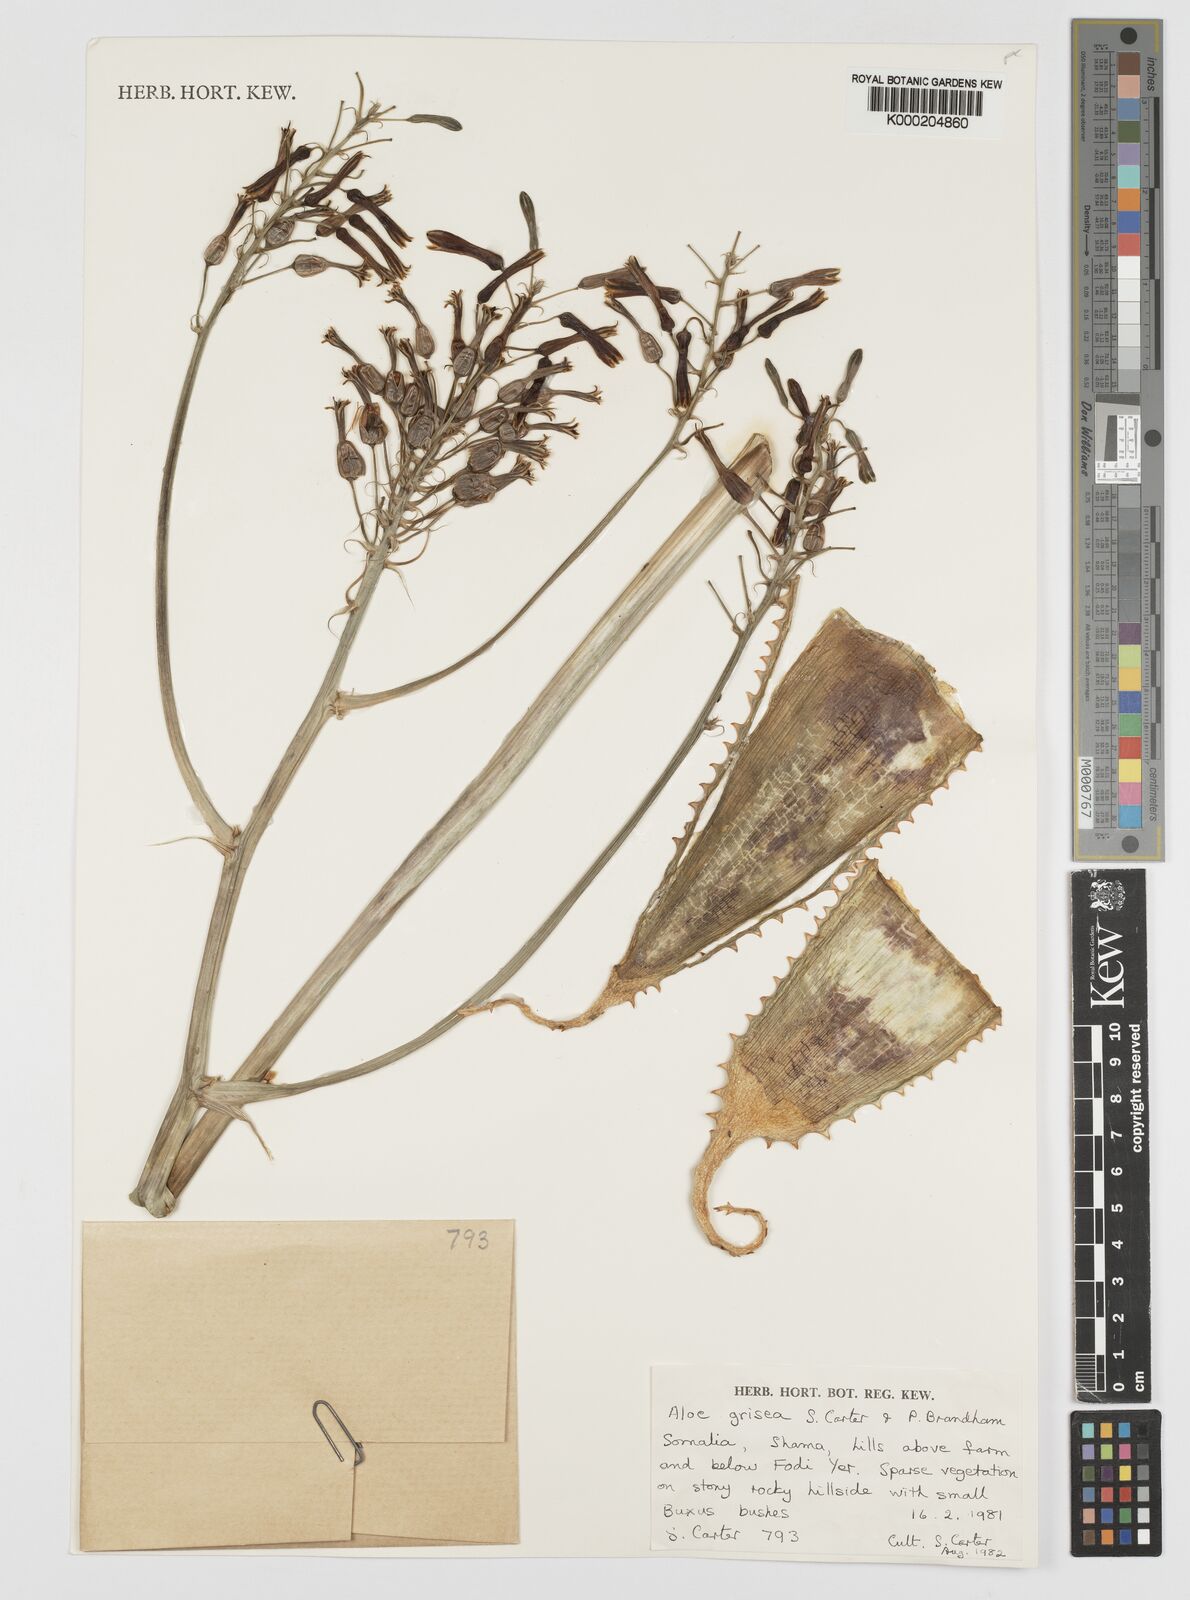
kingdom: Plantae
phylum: Tracheophyta
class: Liliopsida
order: Asparagales
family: Asphodelaceae
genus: Aloe
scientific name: Aloe grisea
